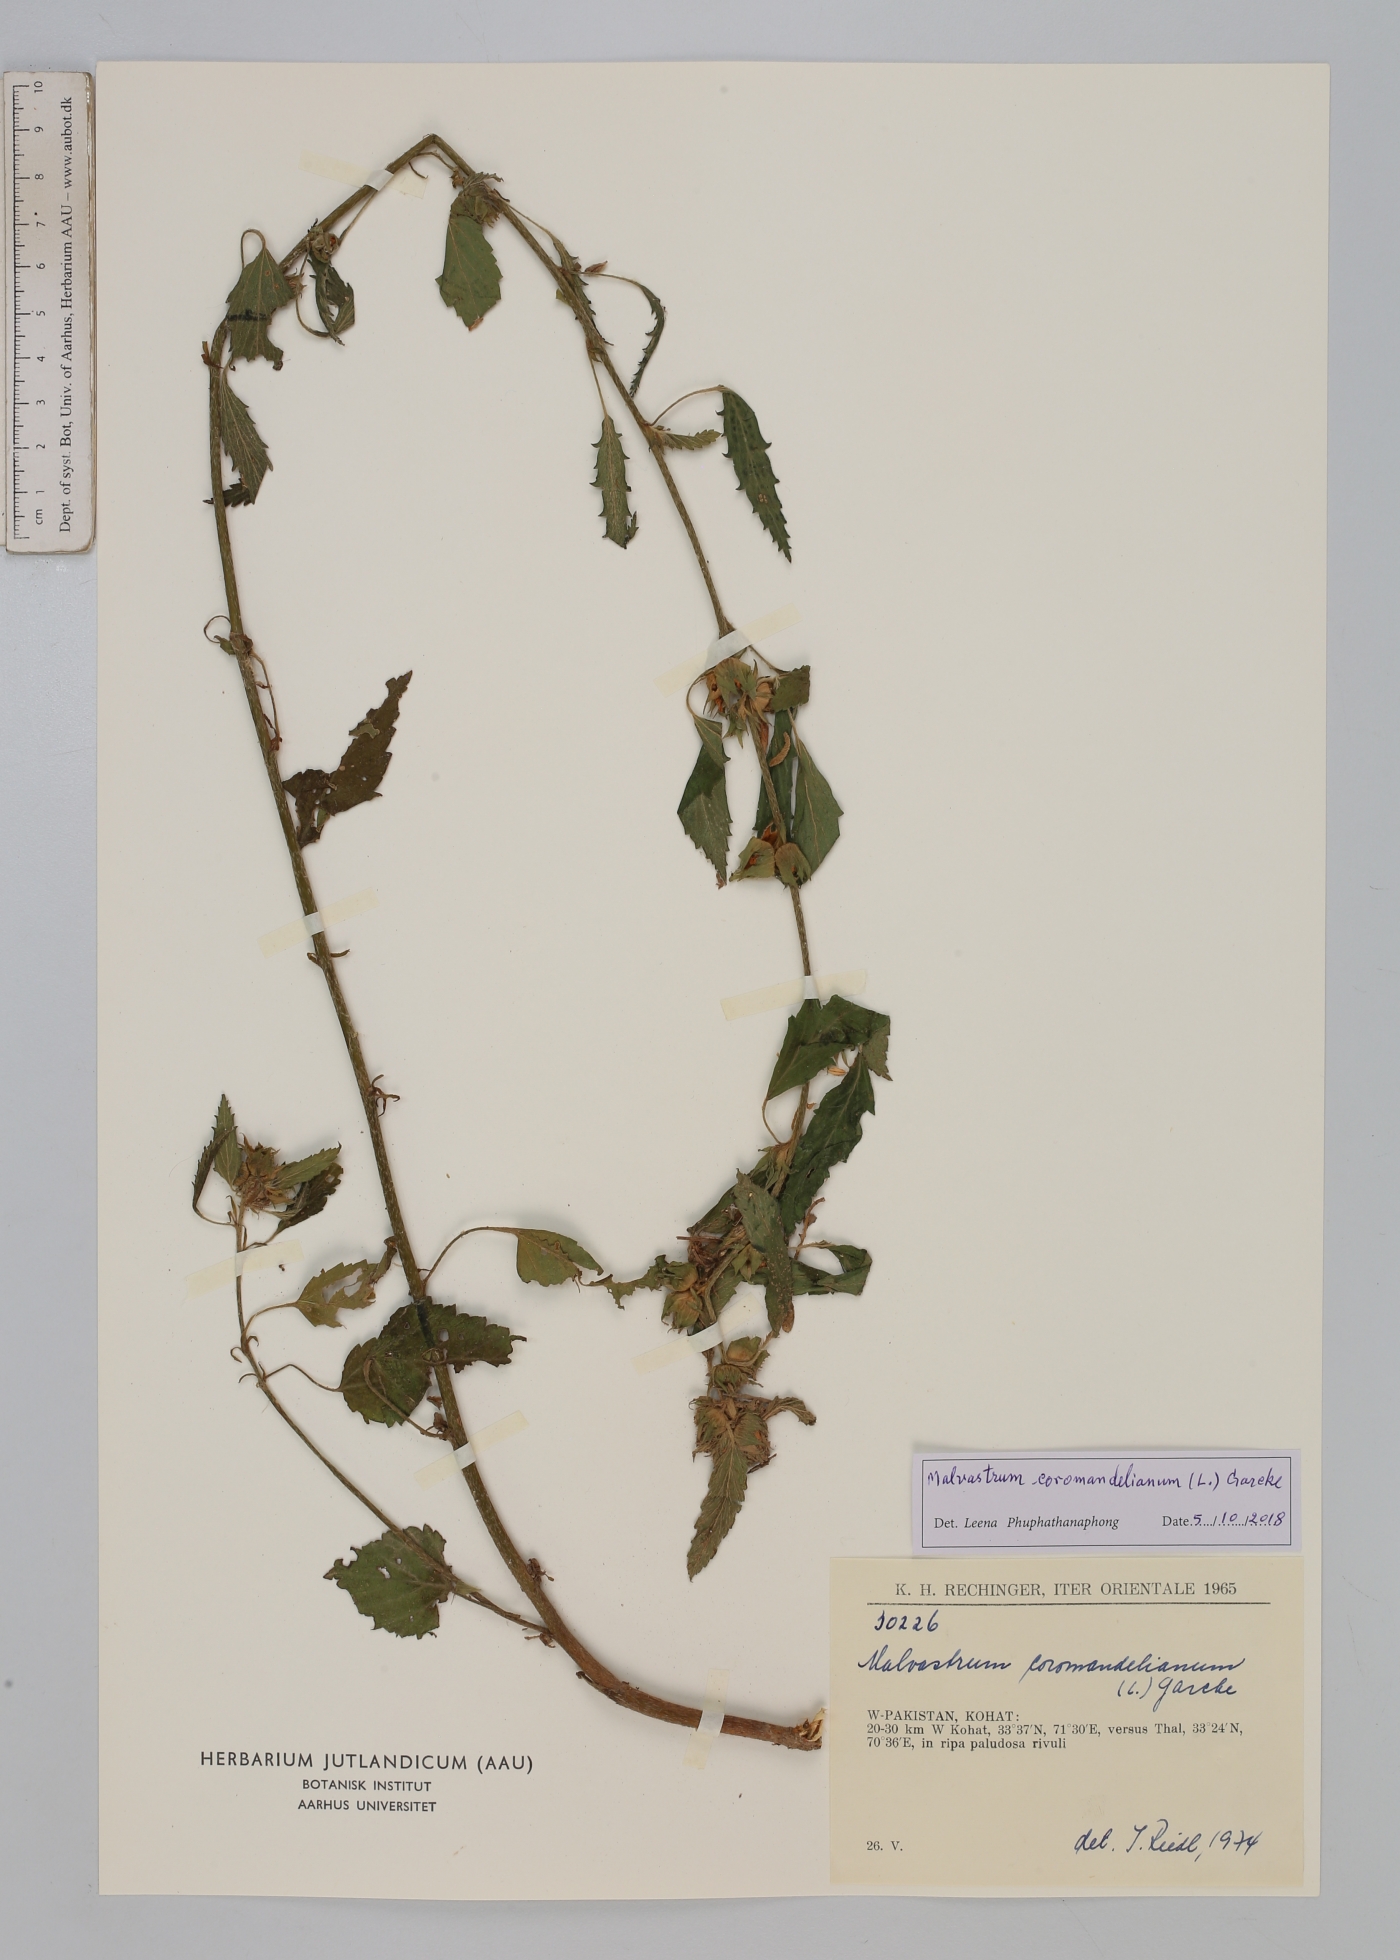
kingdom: Plantae
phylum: Tracheophyta
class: Magnoliopsida
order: Malvales
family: Malvaceae
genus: Malvastrum
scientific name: Malvastrum coromandelianum
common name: Threelobe false mallow
